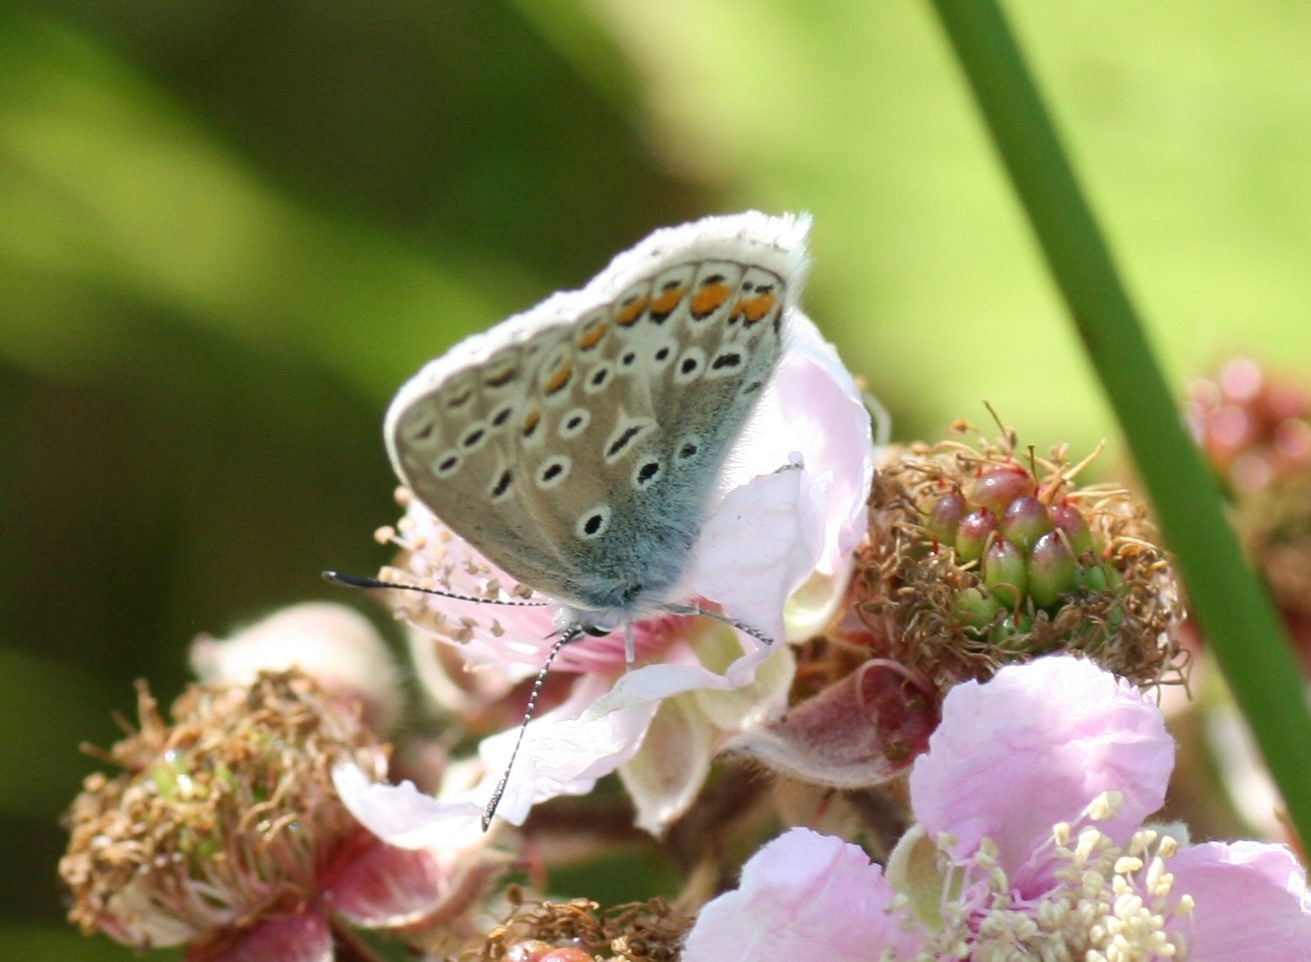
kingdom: Animalia
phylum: Arthropoda
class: Insecta
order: Lepidoptera
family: Lycaenidae
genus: Polyommatus
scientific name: Polyommatus icarus
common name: Almindelig blåfugl
